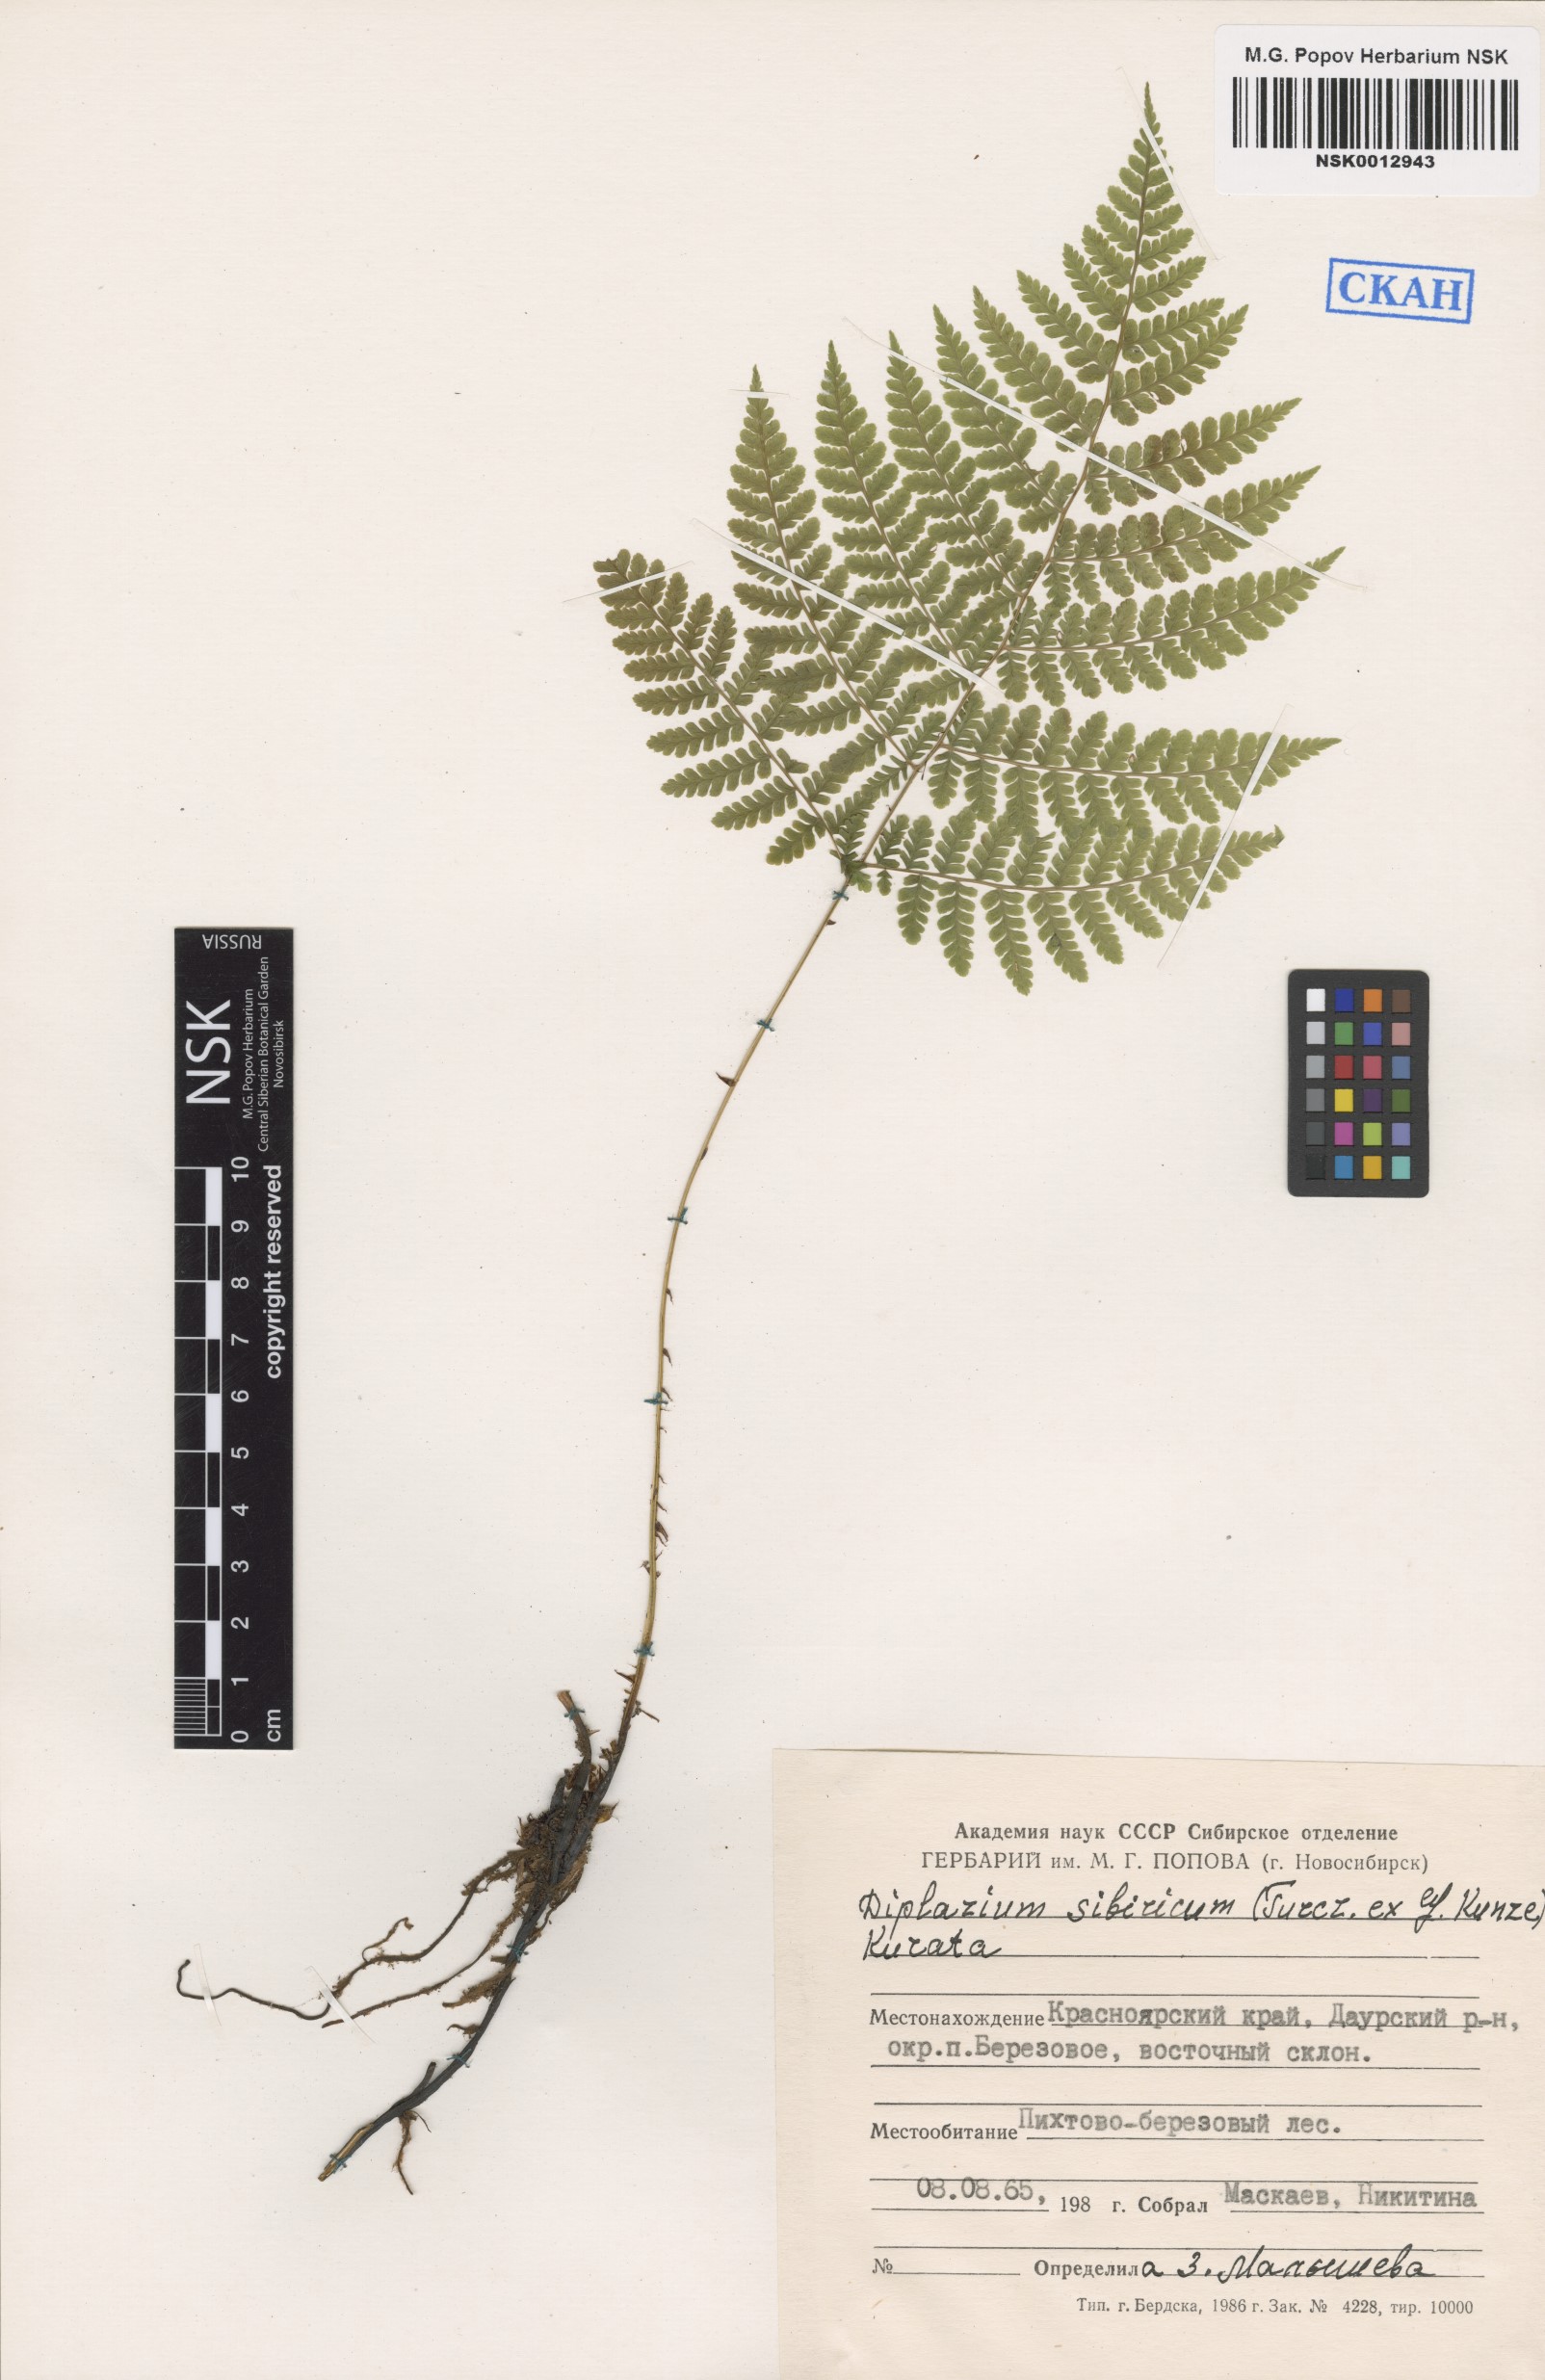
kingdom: Plantae
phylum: Tracheophyta
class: Polypodiopsida
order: Polypodiales
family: Athyriaceae
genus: Diplazium
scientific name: Diplazium sibiricum
